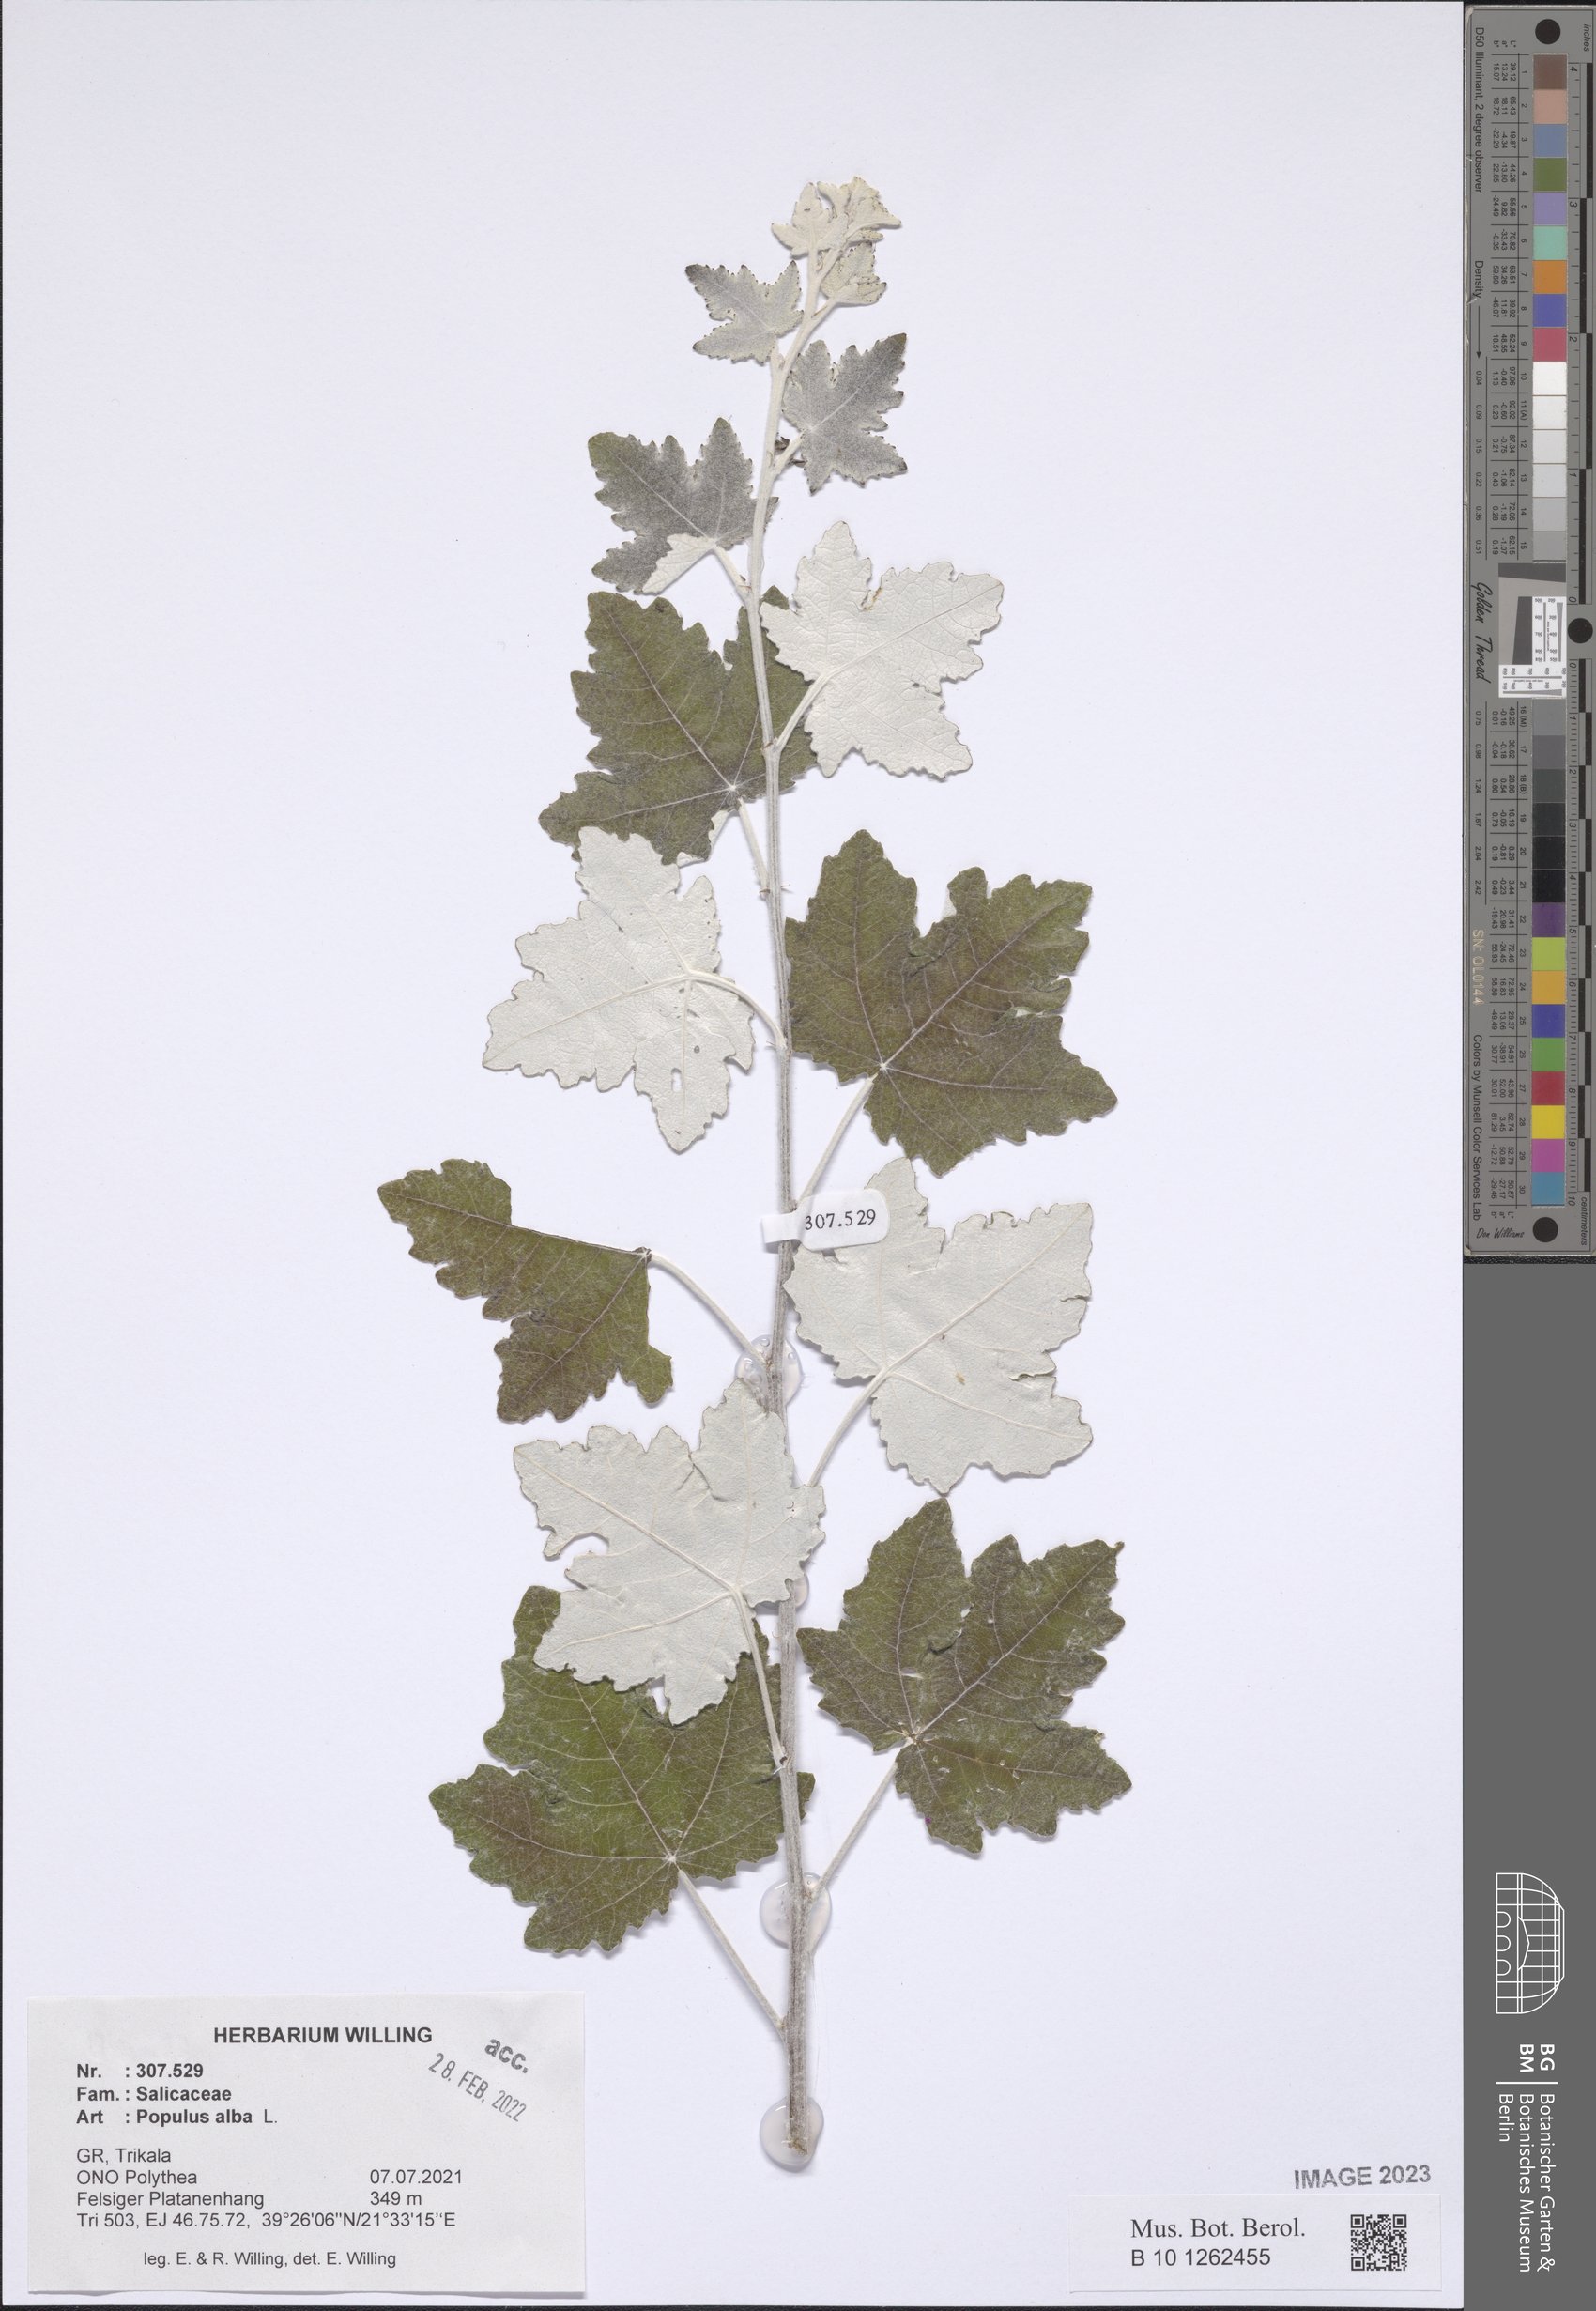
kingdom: Plantae
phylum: Tracheophyta
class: Magnoliopsida
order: Malpighiales
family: Salicaceae
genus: Populus
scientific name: Populus alba
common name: White poplar
